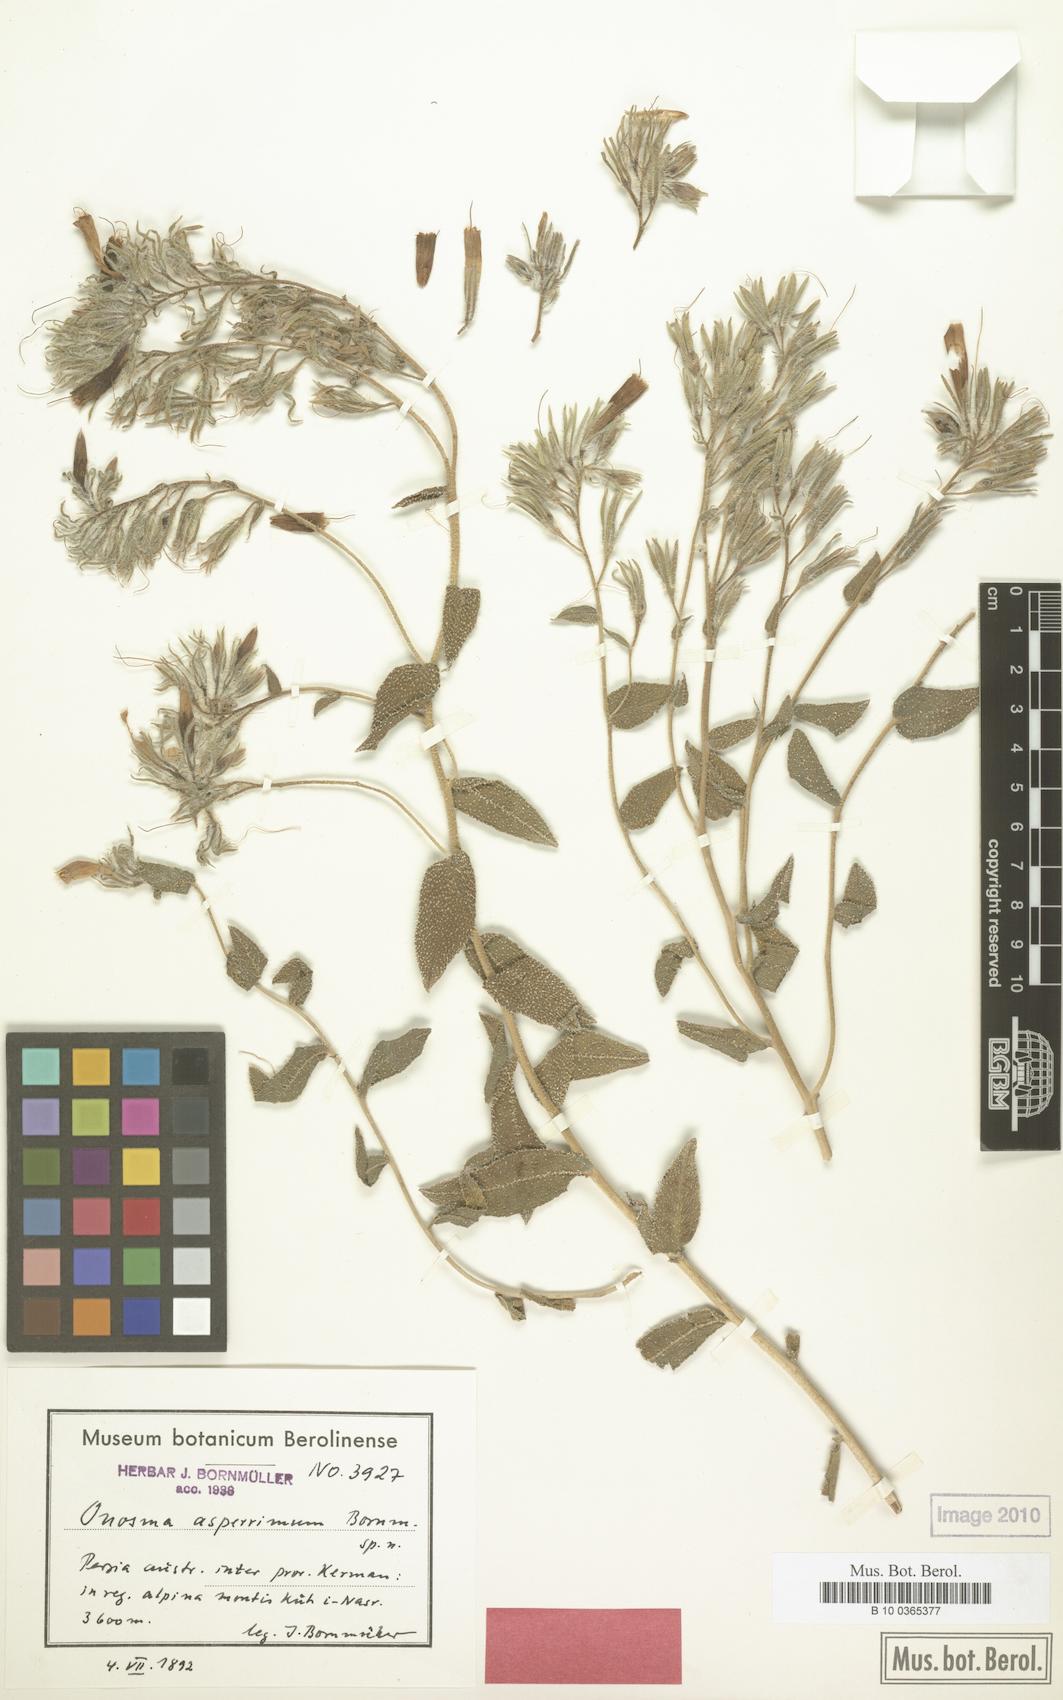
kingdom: Plantae
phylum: Tracheophyta
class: Magnoliopsida
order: Boraginales
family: Boraginaceae
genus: Onosma
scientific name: Onosma asperrima
